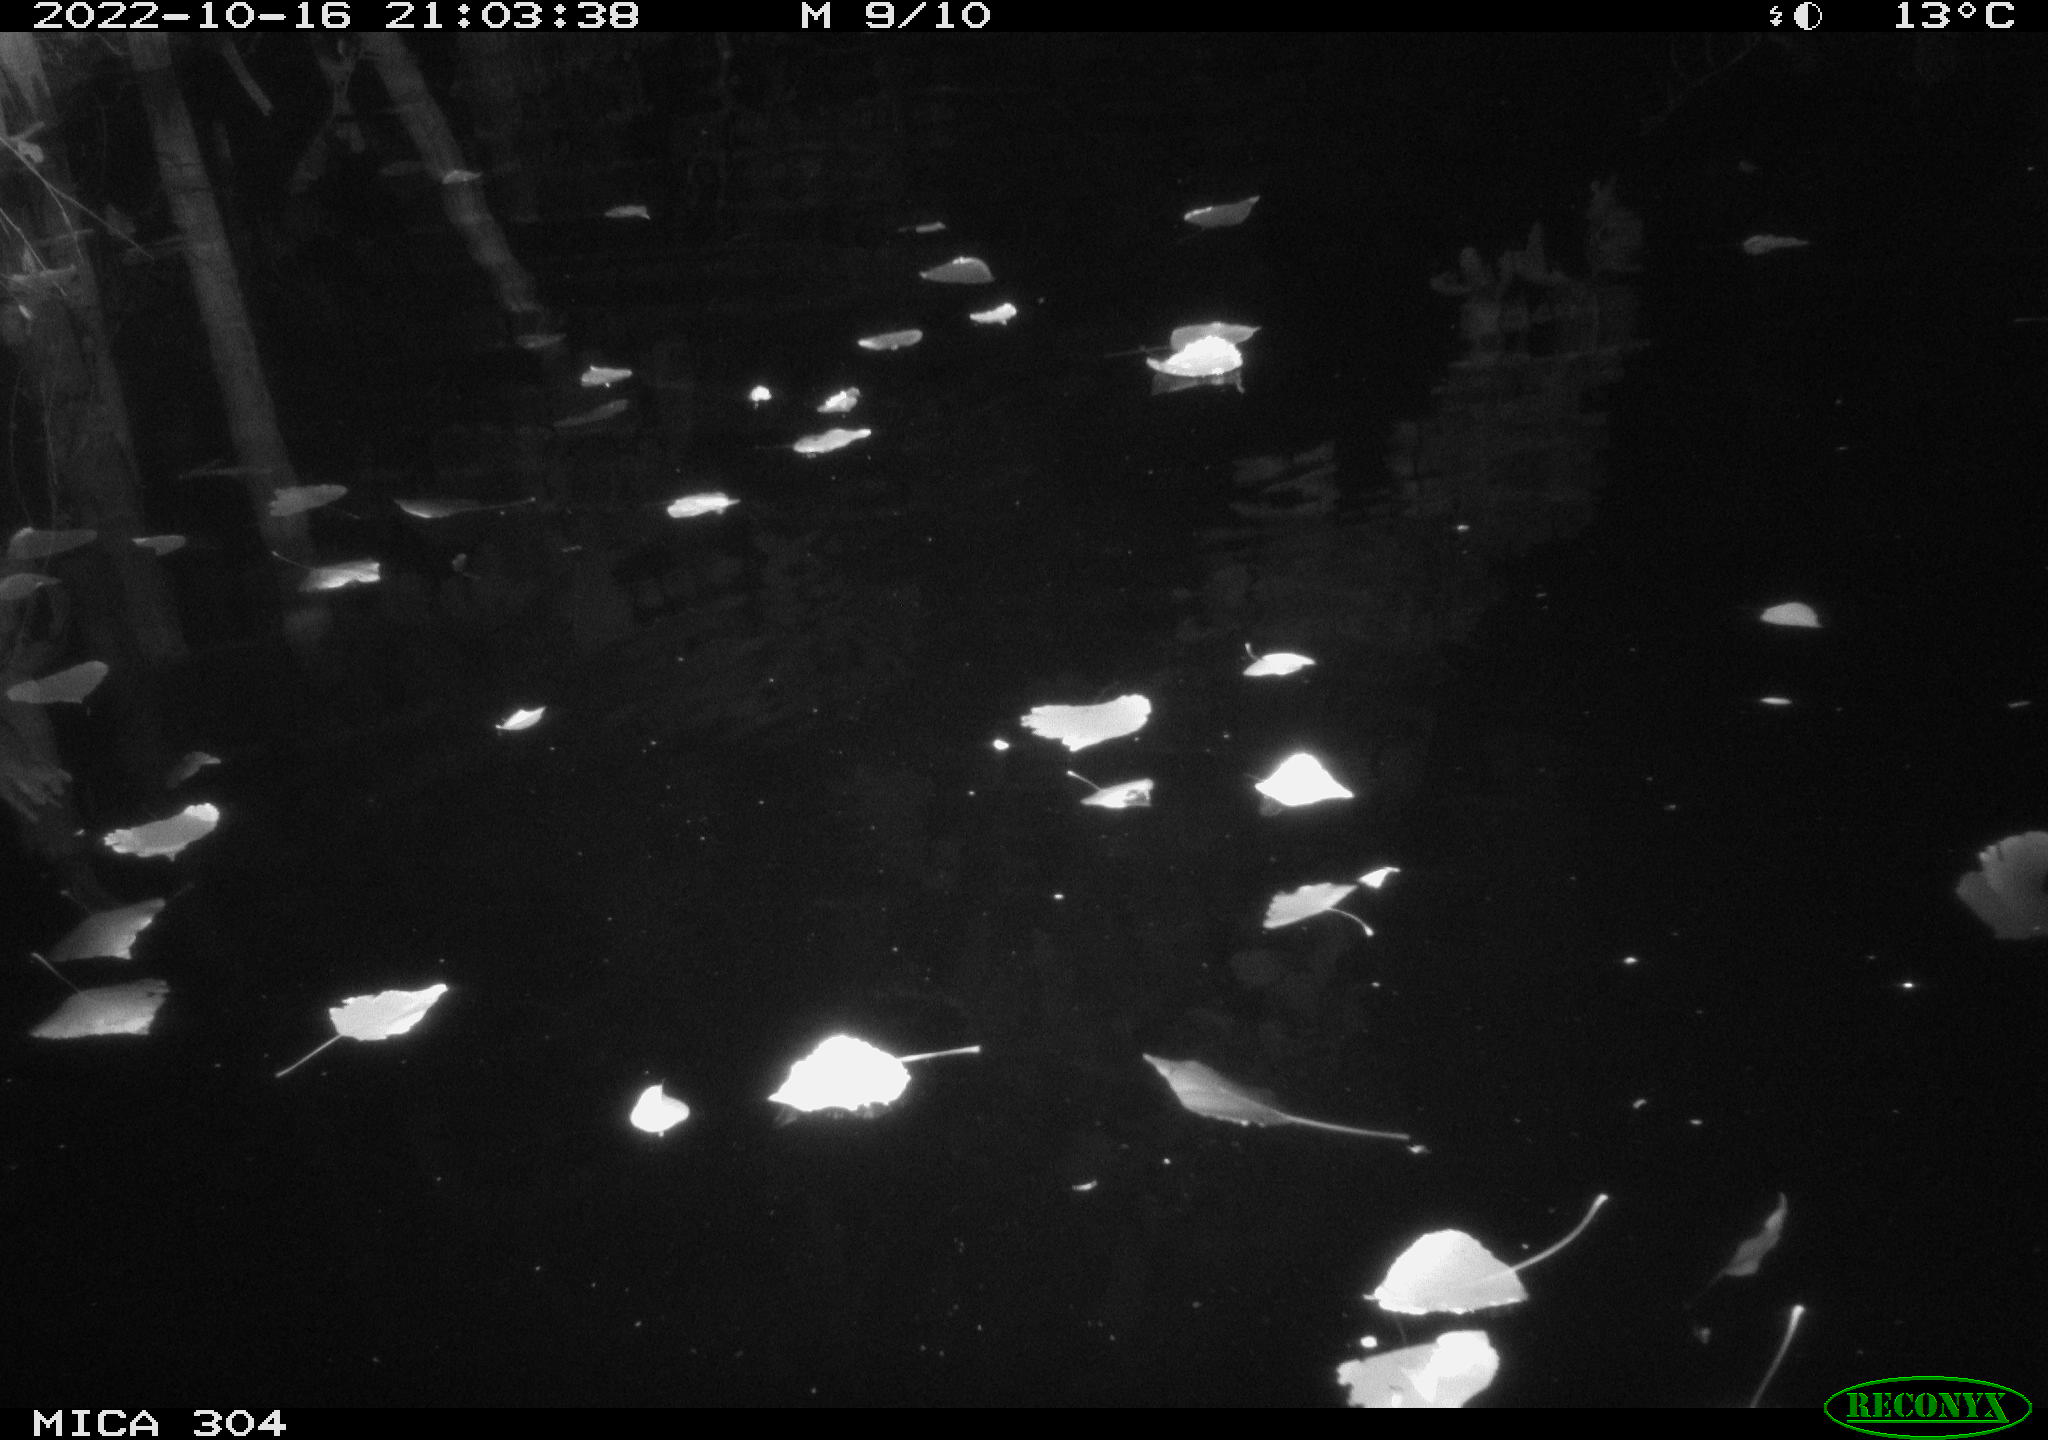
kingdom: Animalia
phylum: Chordata
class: Mammalia
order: Rodentia
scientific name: Rodentia
